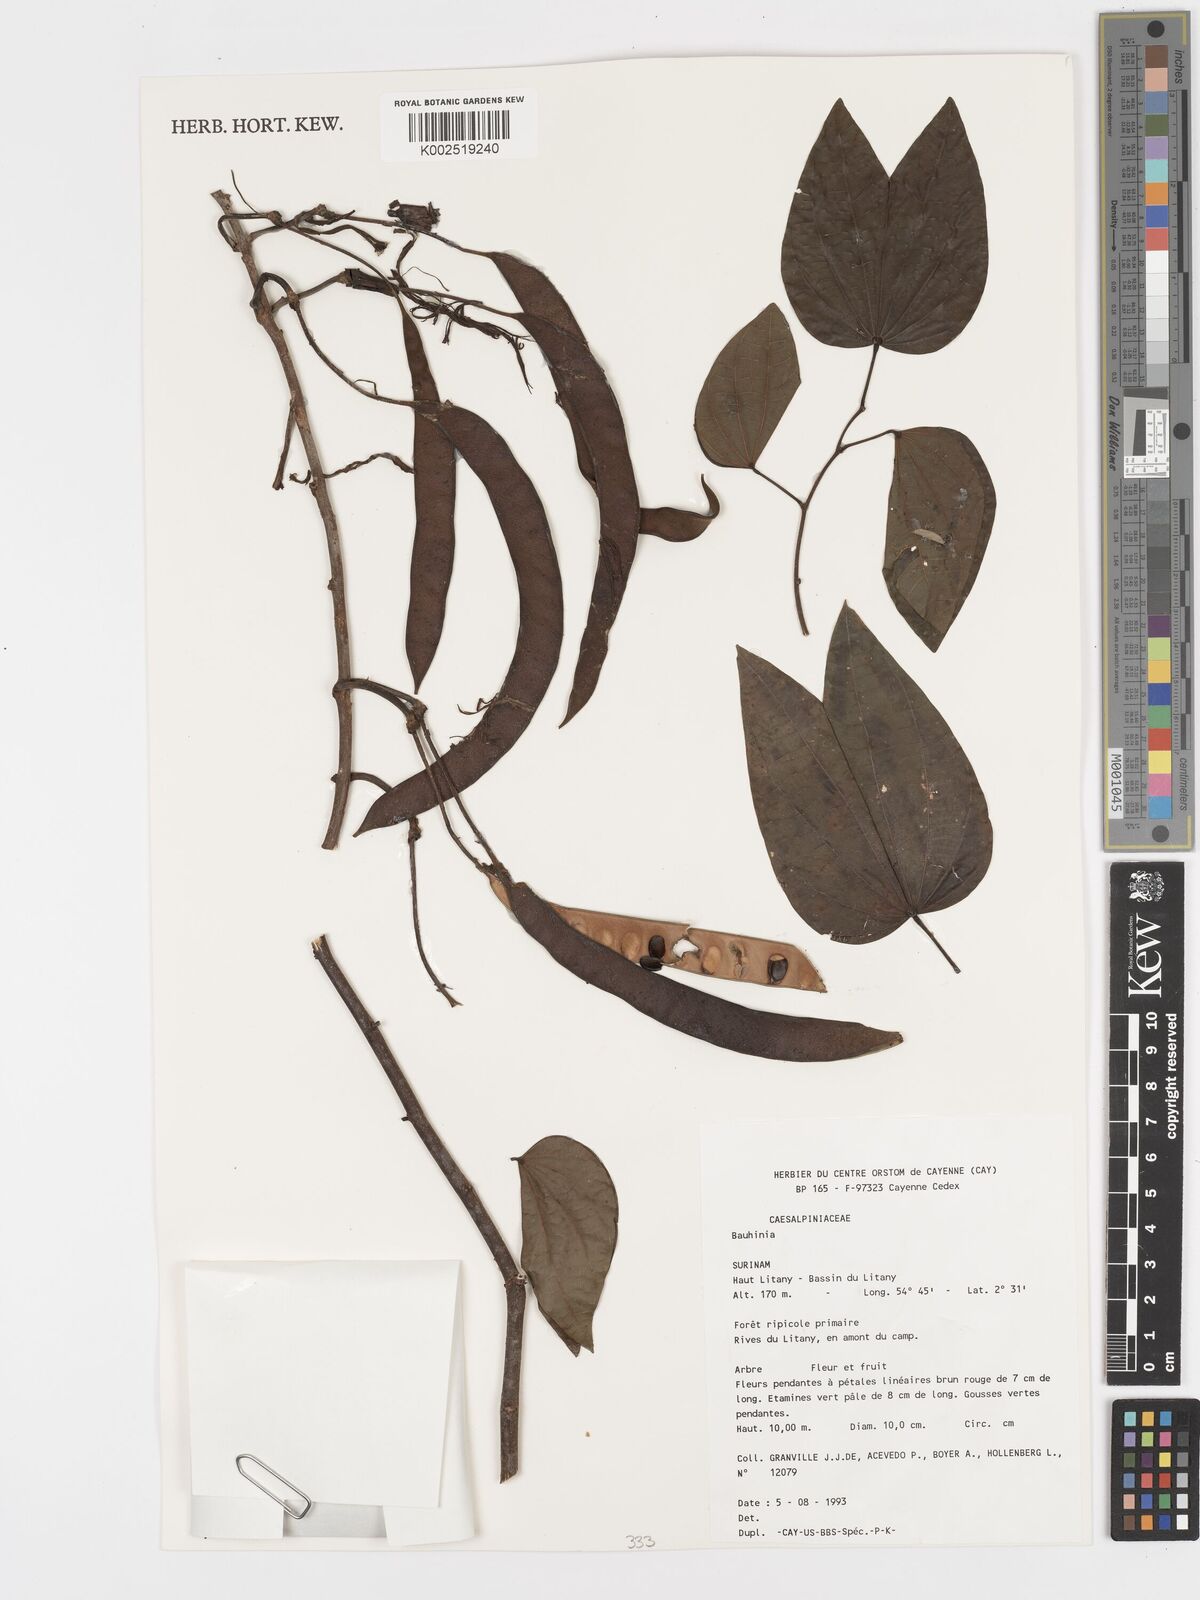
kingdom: Plantae
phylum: Tracheophyta
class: Magnoliopsida
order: Fabales
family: Fabaceae
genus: Bauhinia
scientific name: Bauhinia
